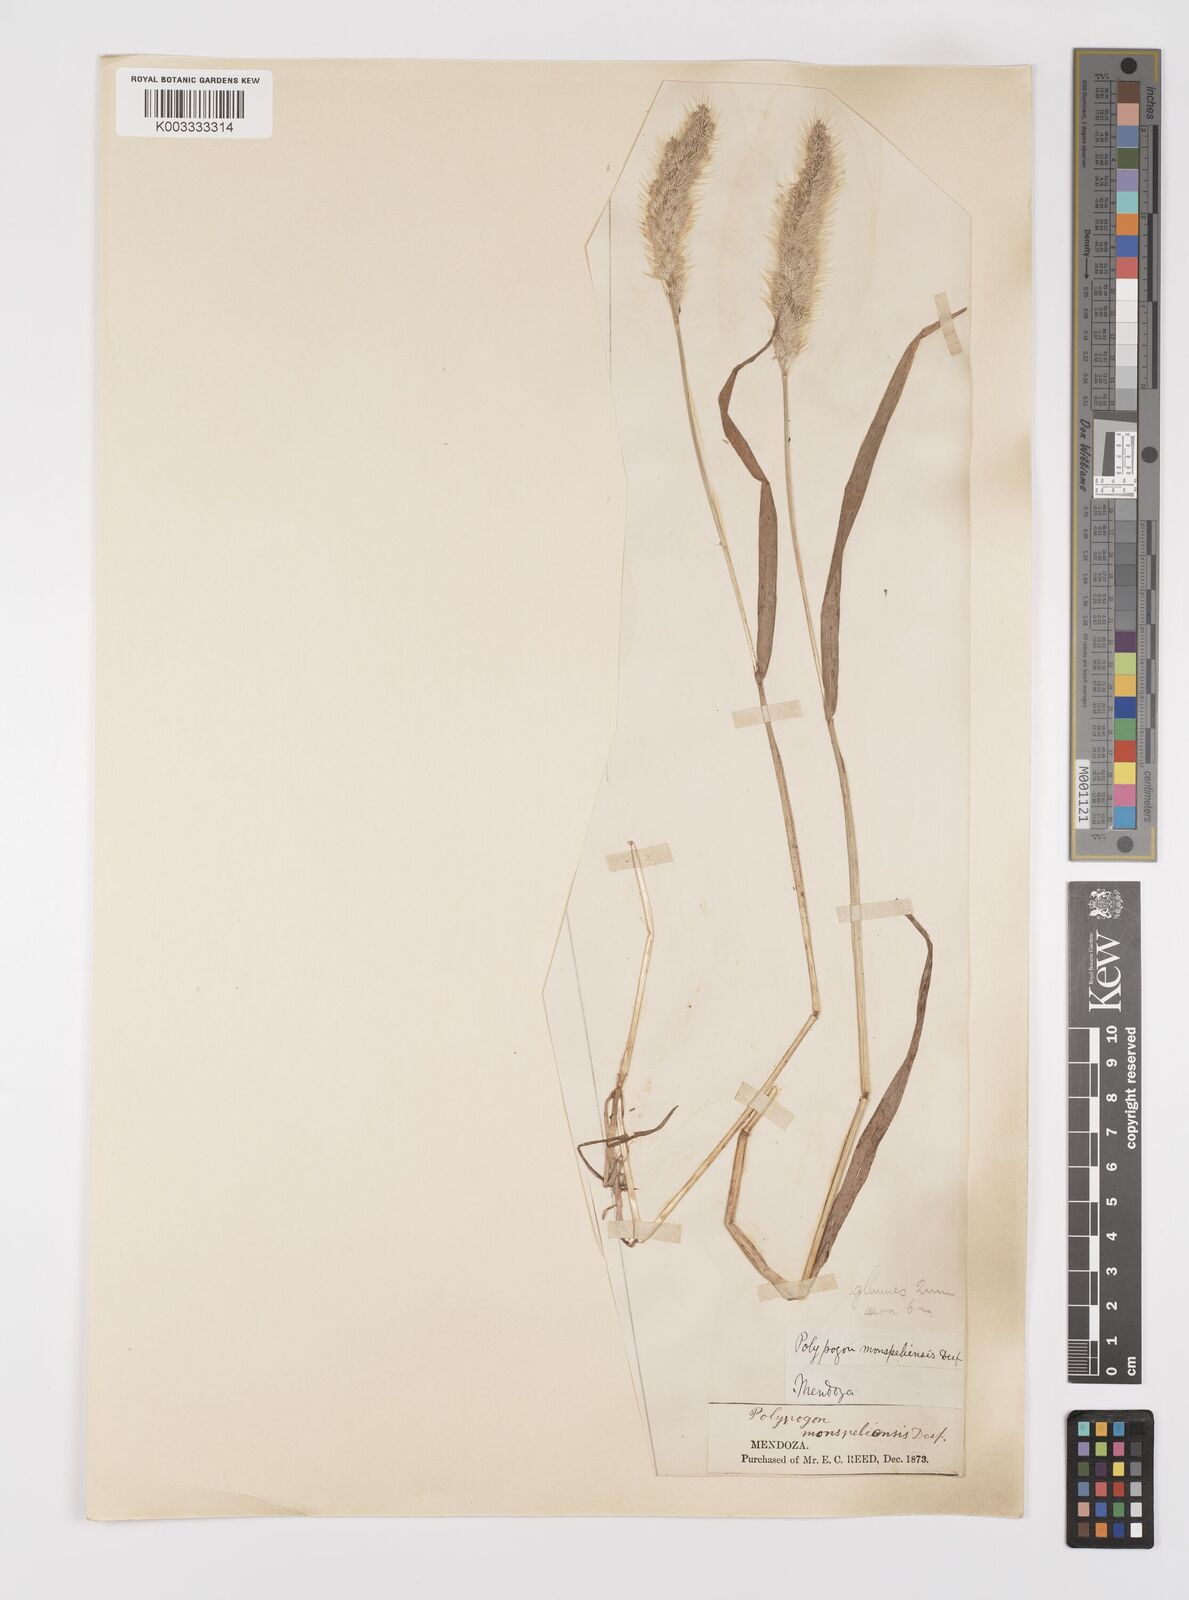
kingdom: Plantae
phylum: Tracheophyta
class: Liliopsida
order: Poales
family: Poaceae
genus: Polypogon
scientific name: Polypogon monspeliensis
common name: Annual rabbitsfoot grass
